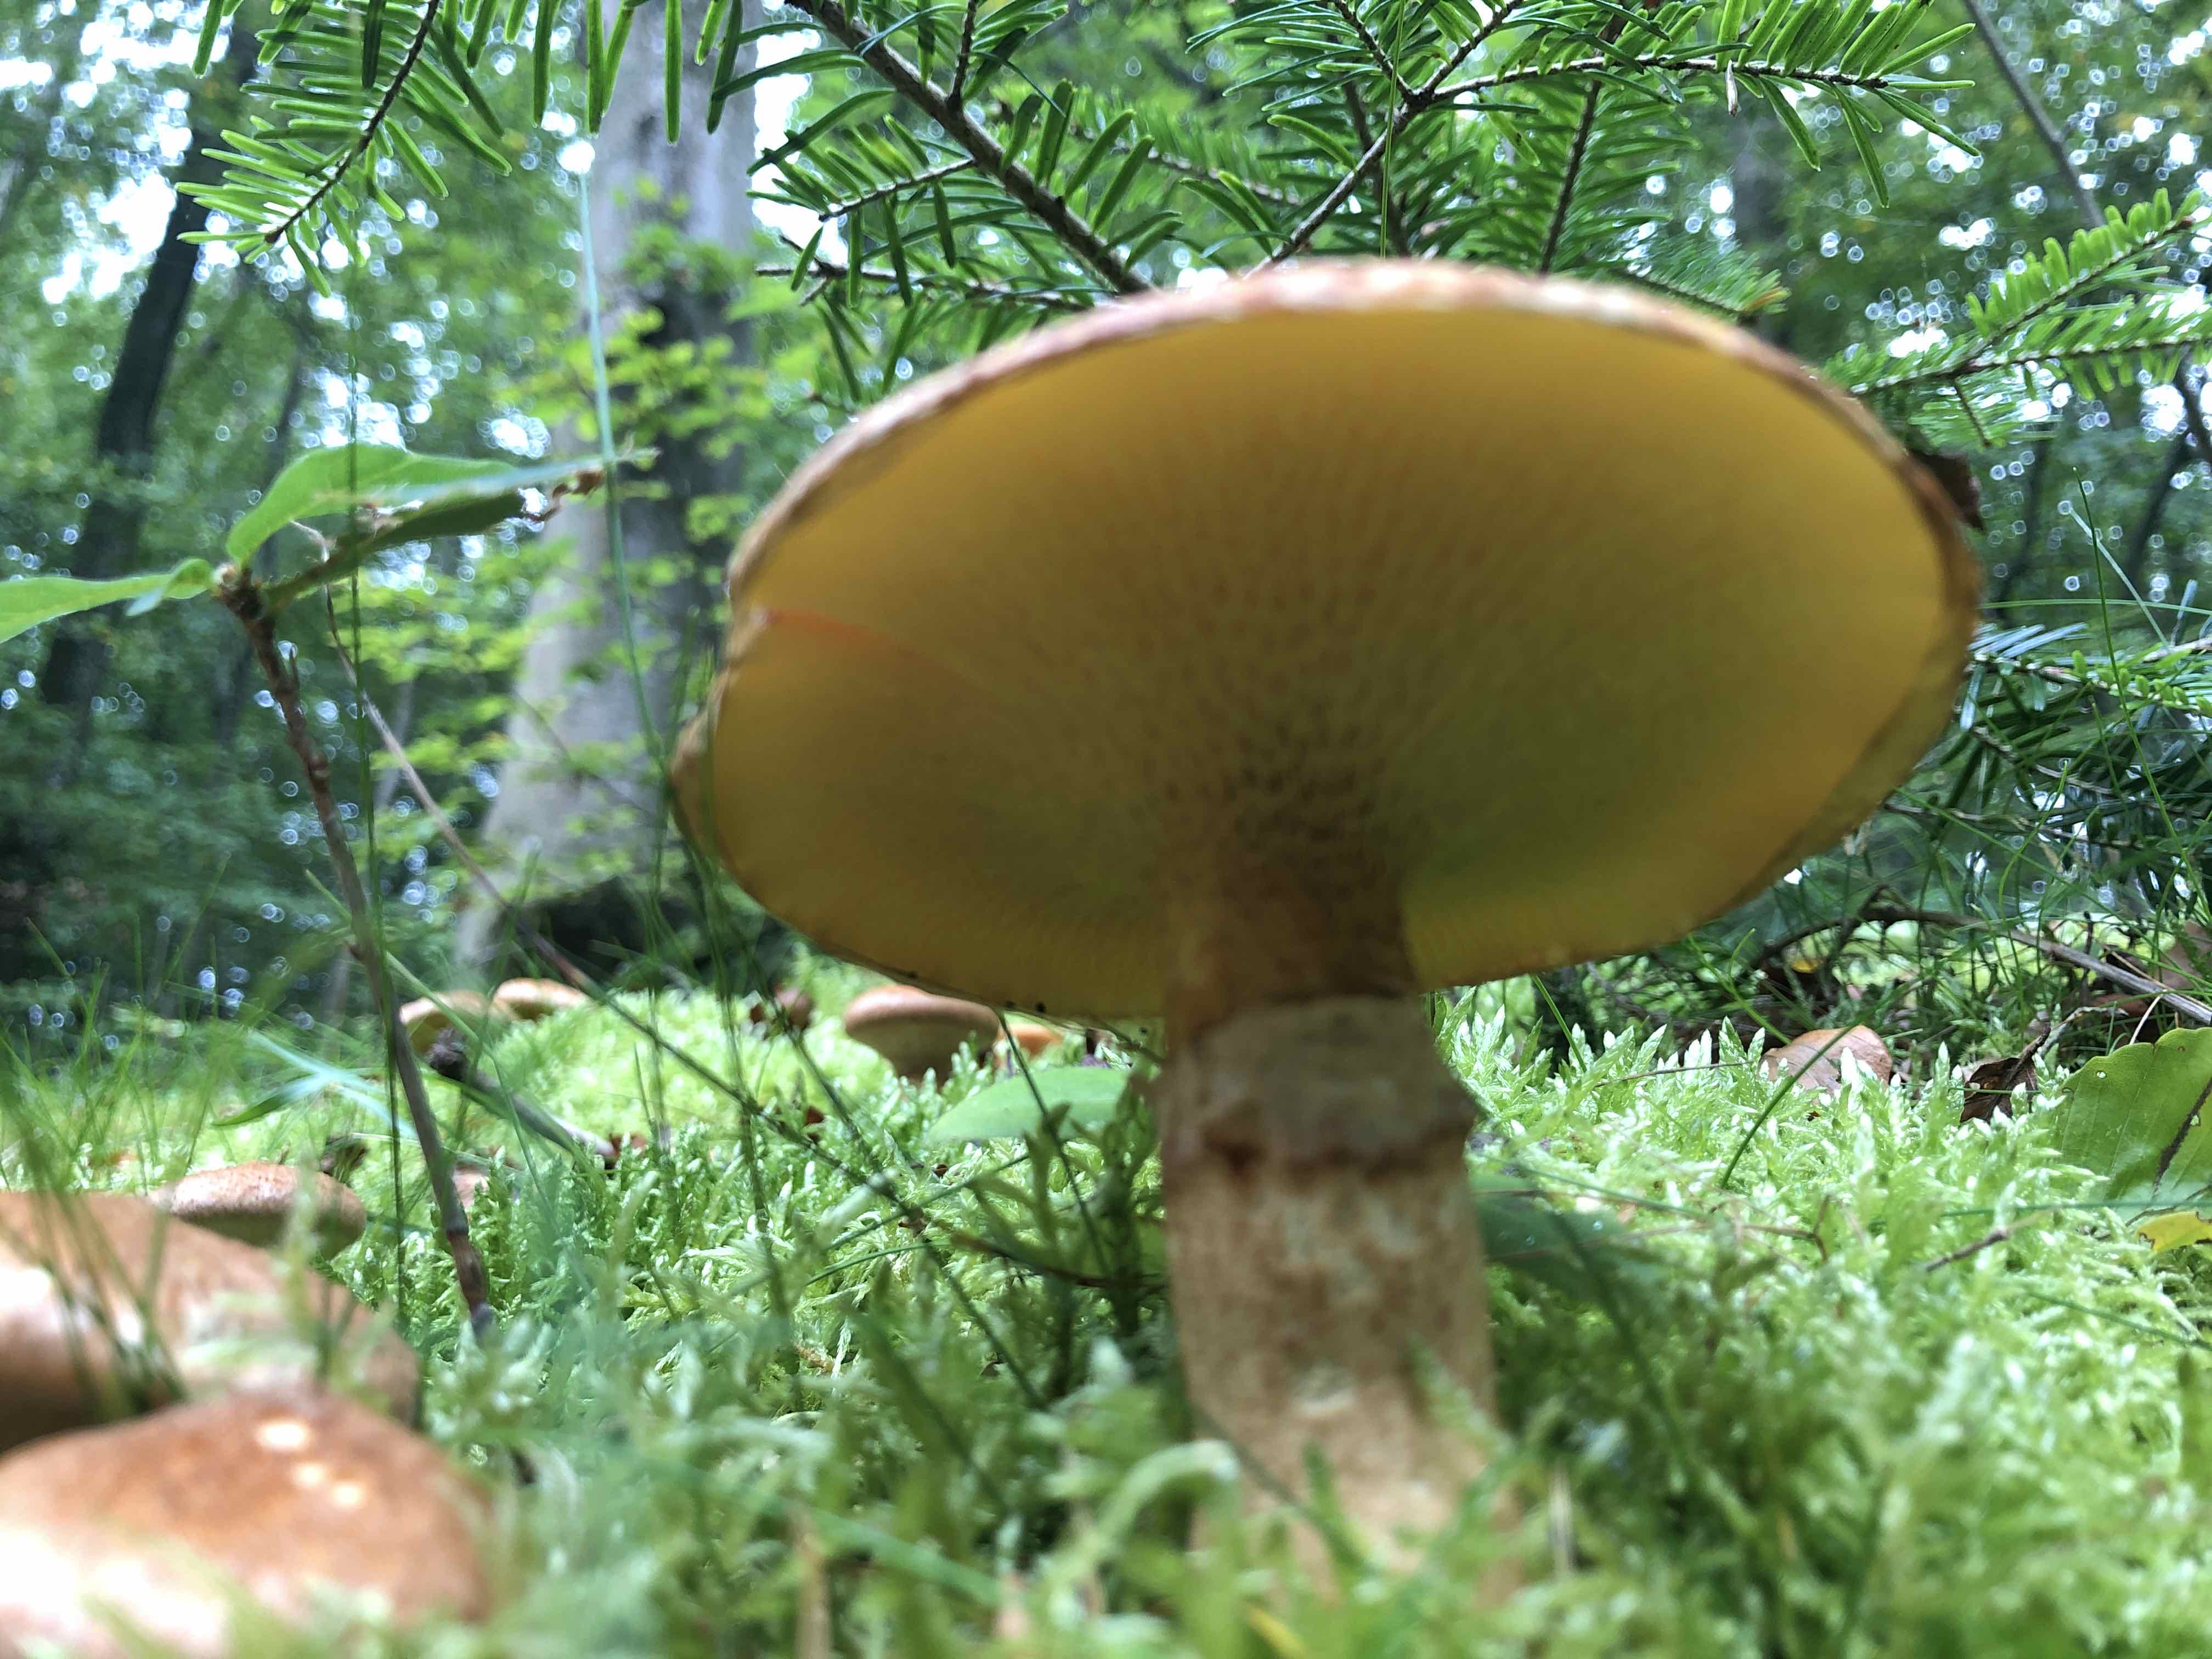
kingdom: Fungi
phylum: Basidiomycota
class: Agaricomycetes
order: Boletales
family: Suillaceae
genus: Suillus
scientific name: Suillus cavipes
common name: hulstokket slimrørhat
